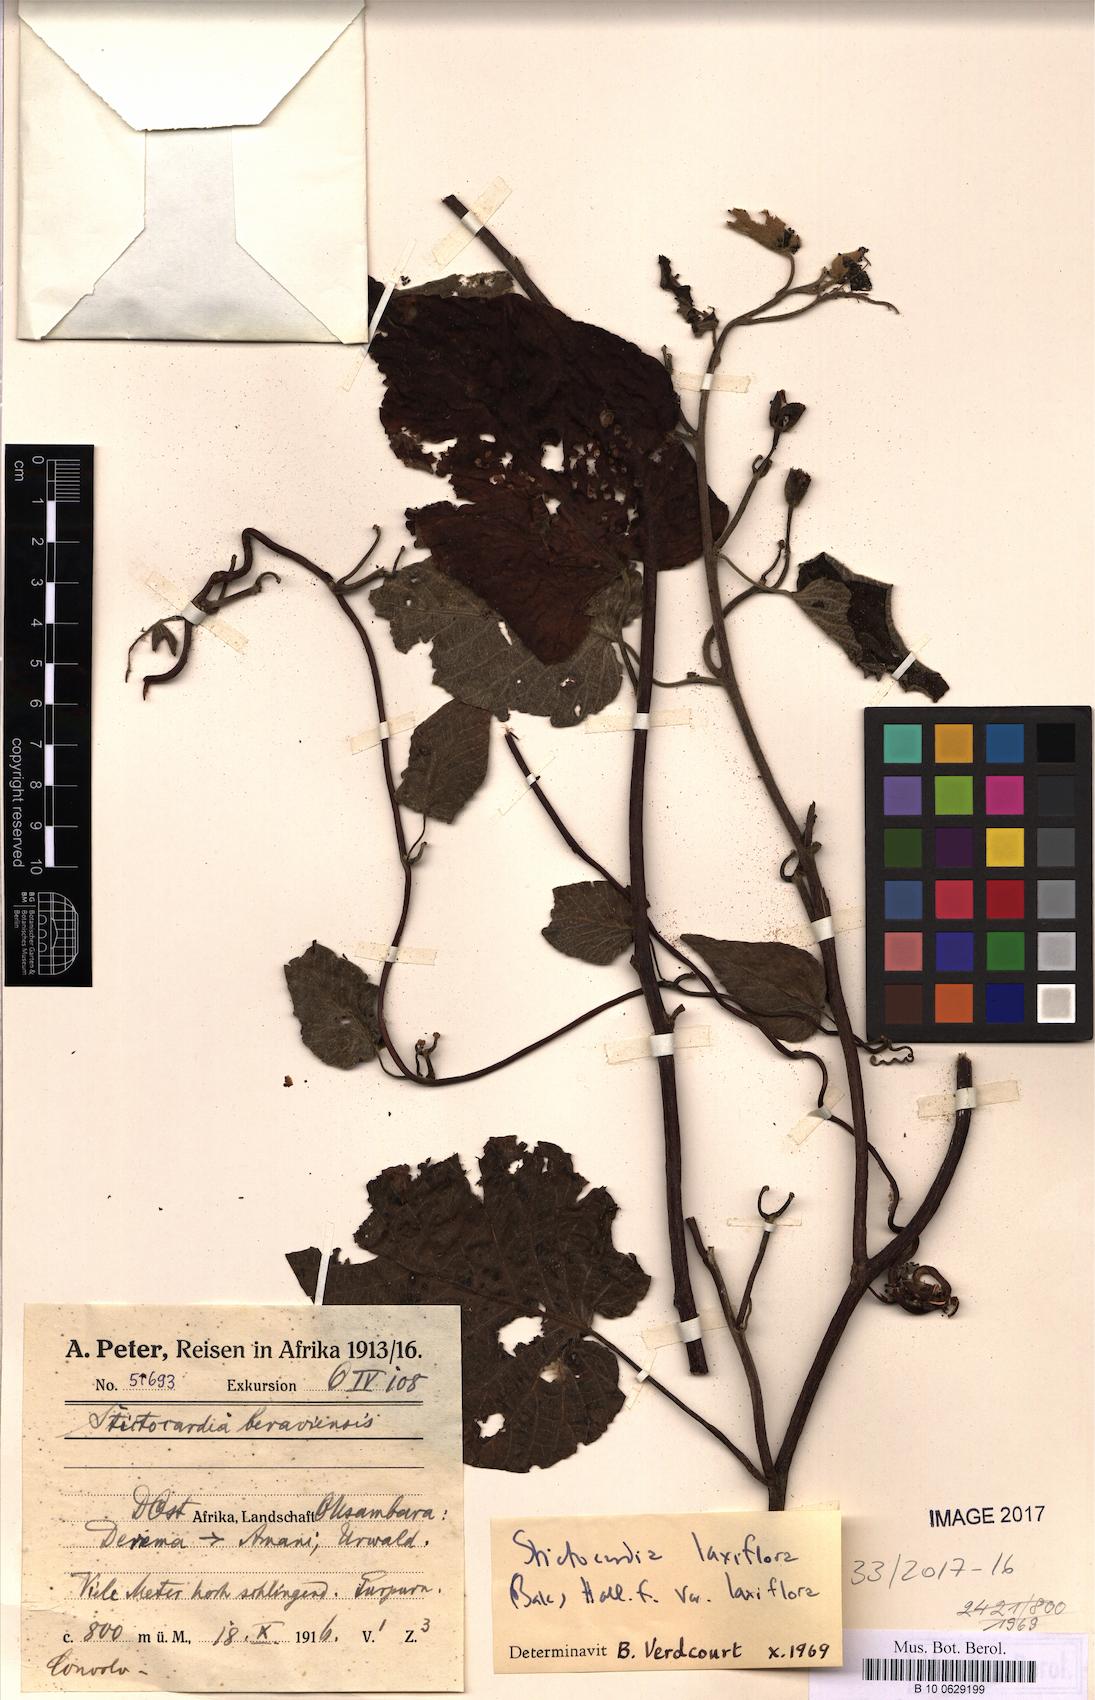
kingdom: Plantae
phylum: Tracheophyta
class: Magnoliopsida
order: Solanales
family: Convolvulaceae
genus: Stictocardia
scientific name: Stictocardia laxiflora
